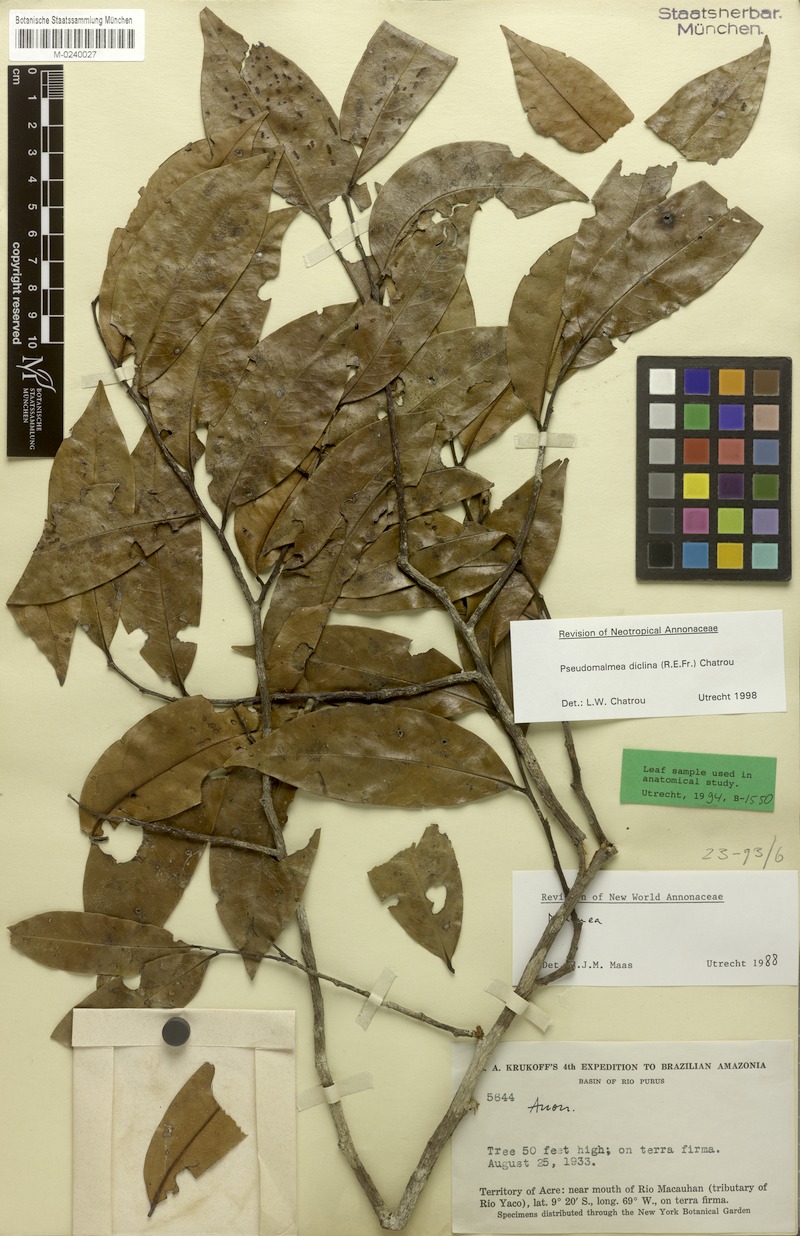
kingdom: Plantae
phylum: Tracheophyta
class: Magnoliopsida
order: Magnoliales
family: Annonaceae
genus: Pseudomalmea
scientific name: Pseudomalmea diclina
